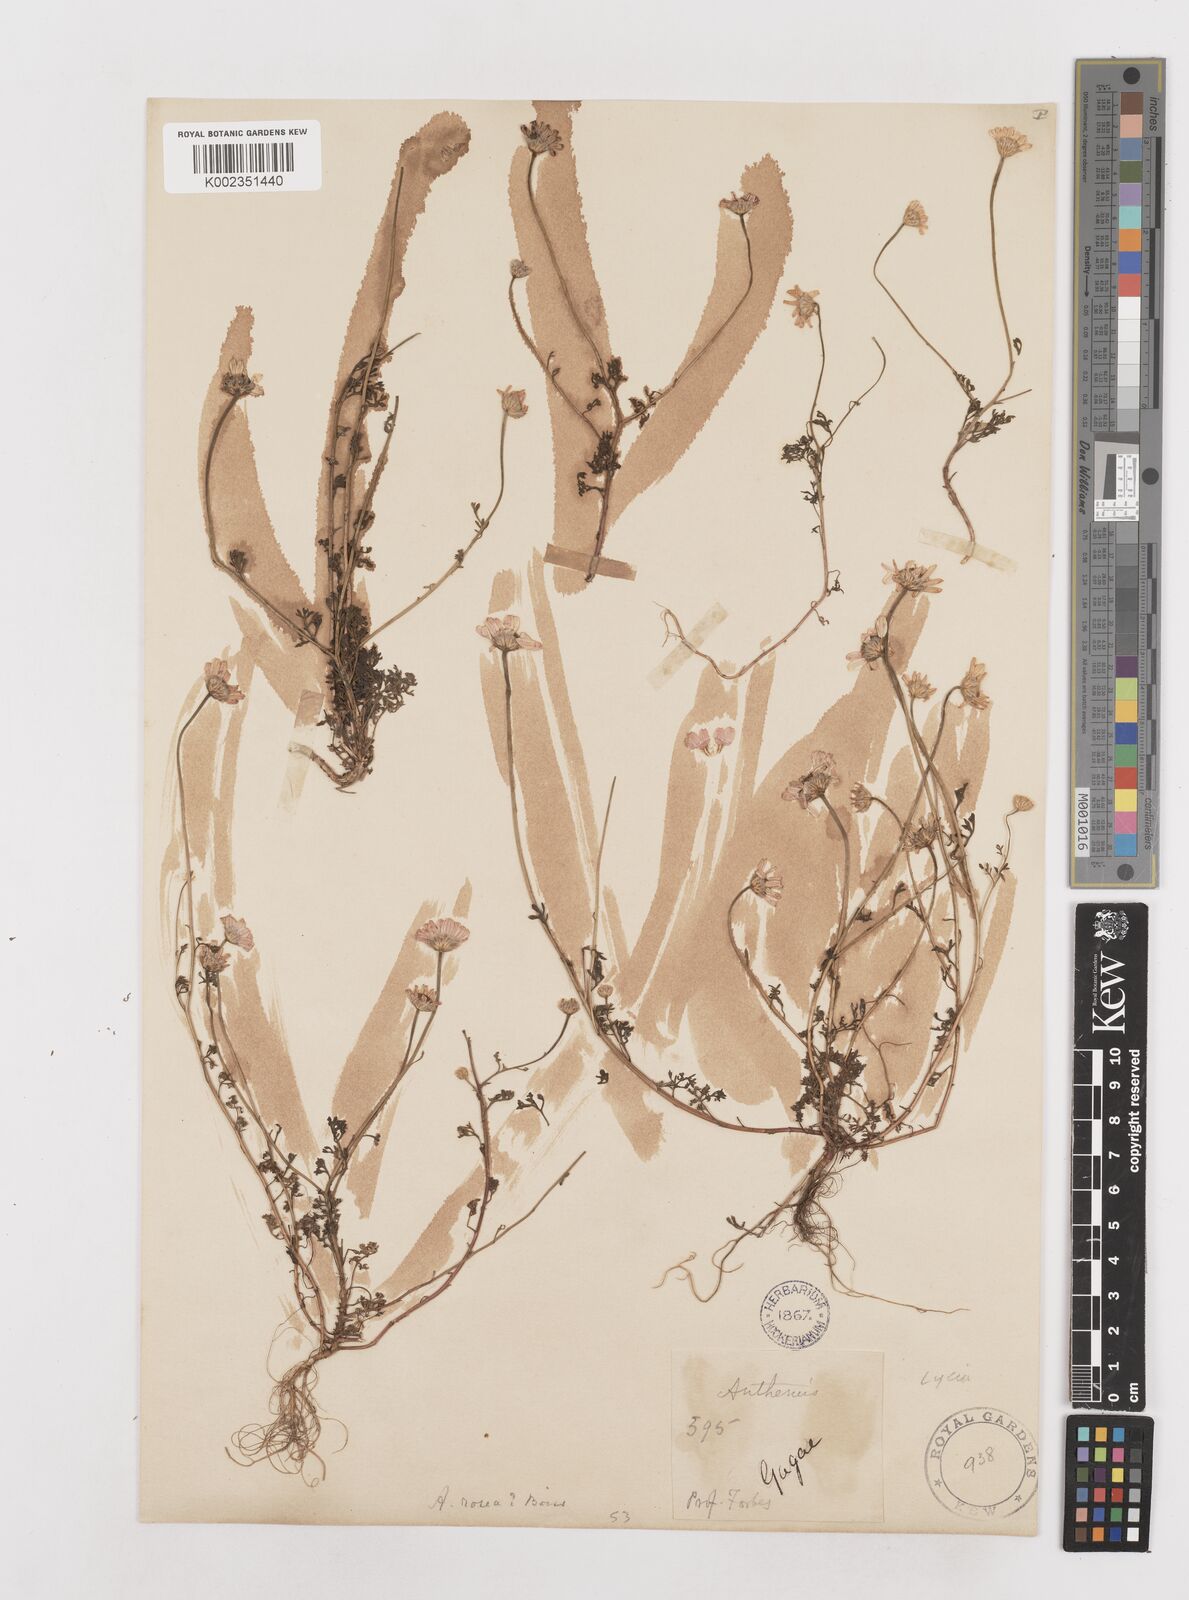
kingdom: Plantae
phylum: Tracheophyta
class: Magnoliopsida
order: Asterales
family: Asteraceae
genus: Anthemis
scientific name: Anthemis rosea
